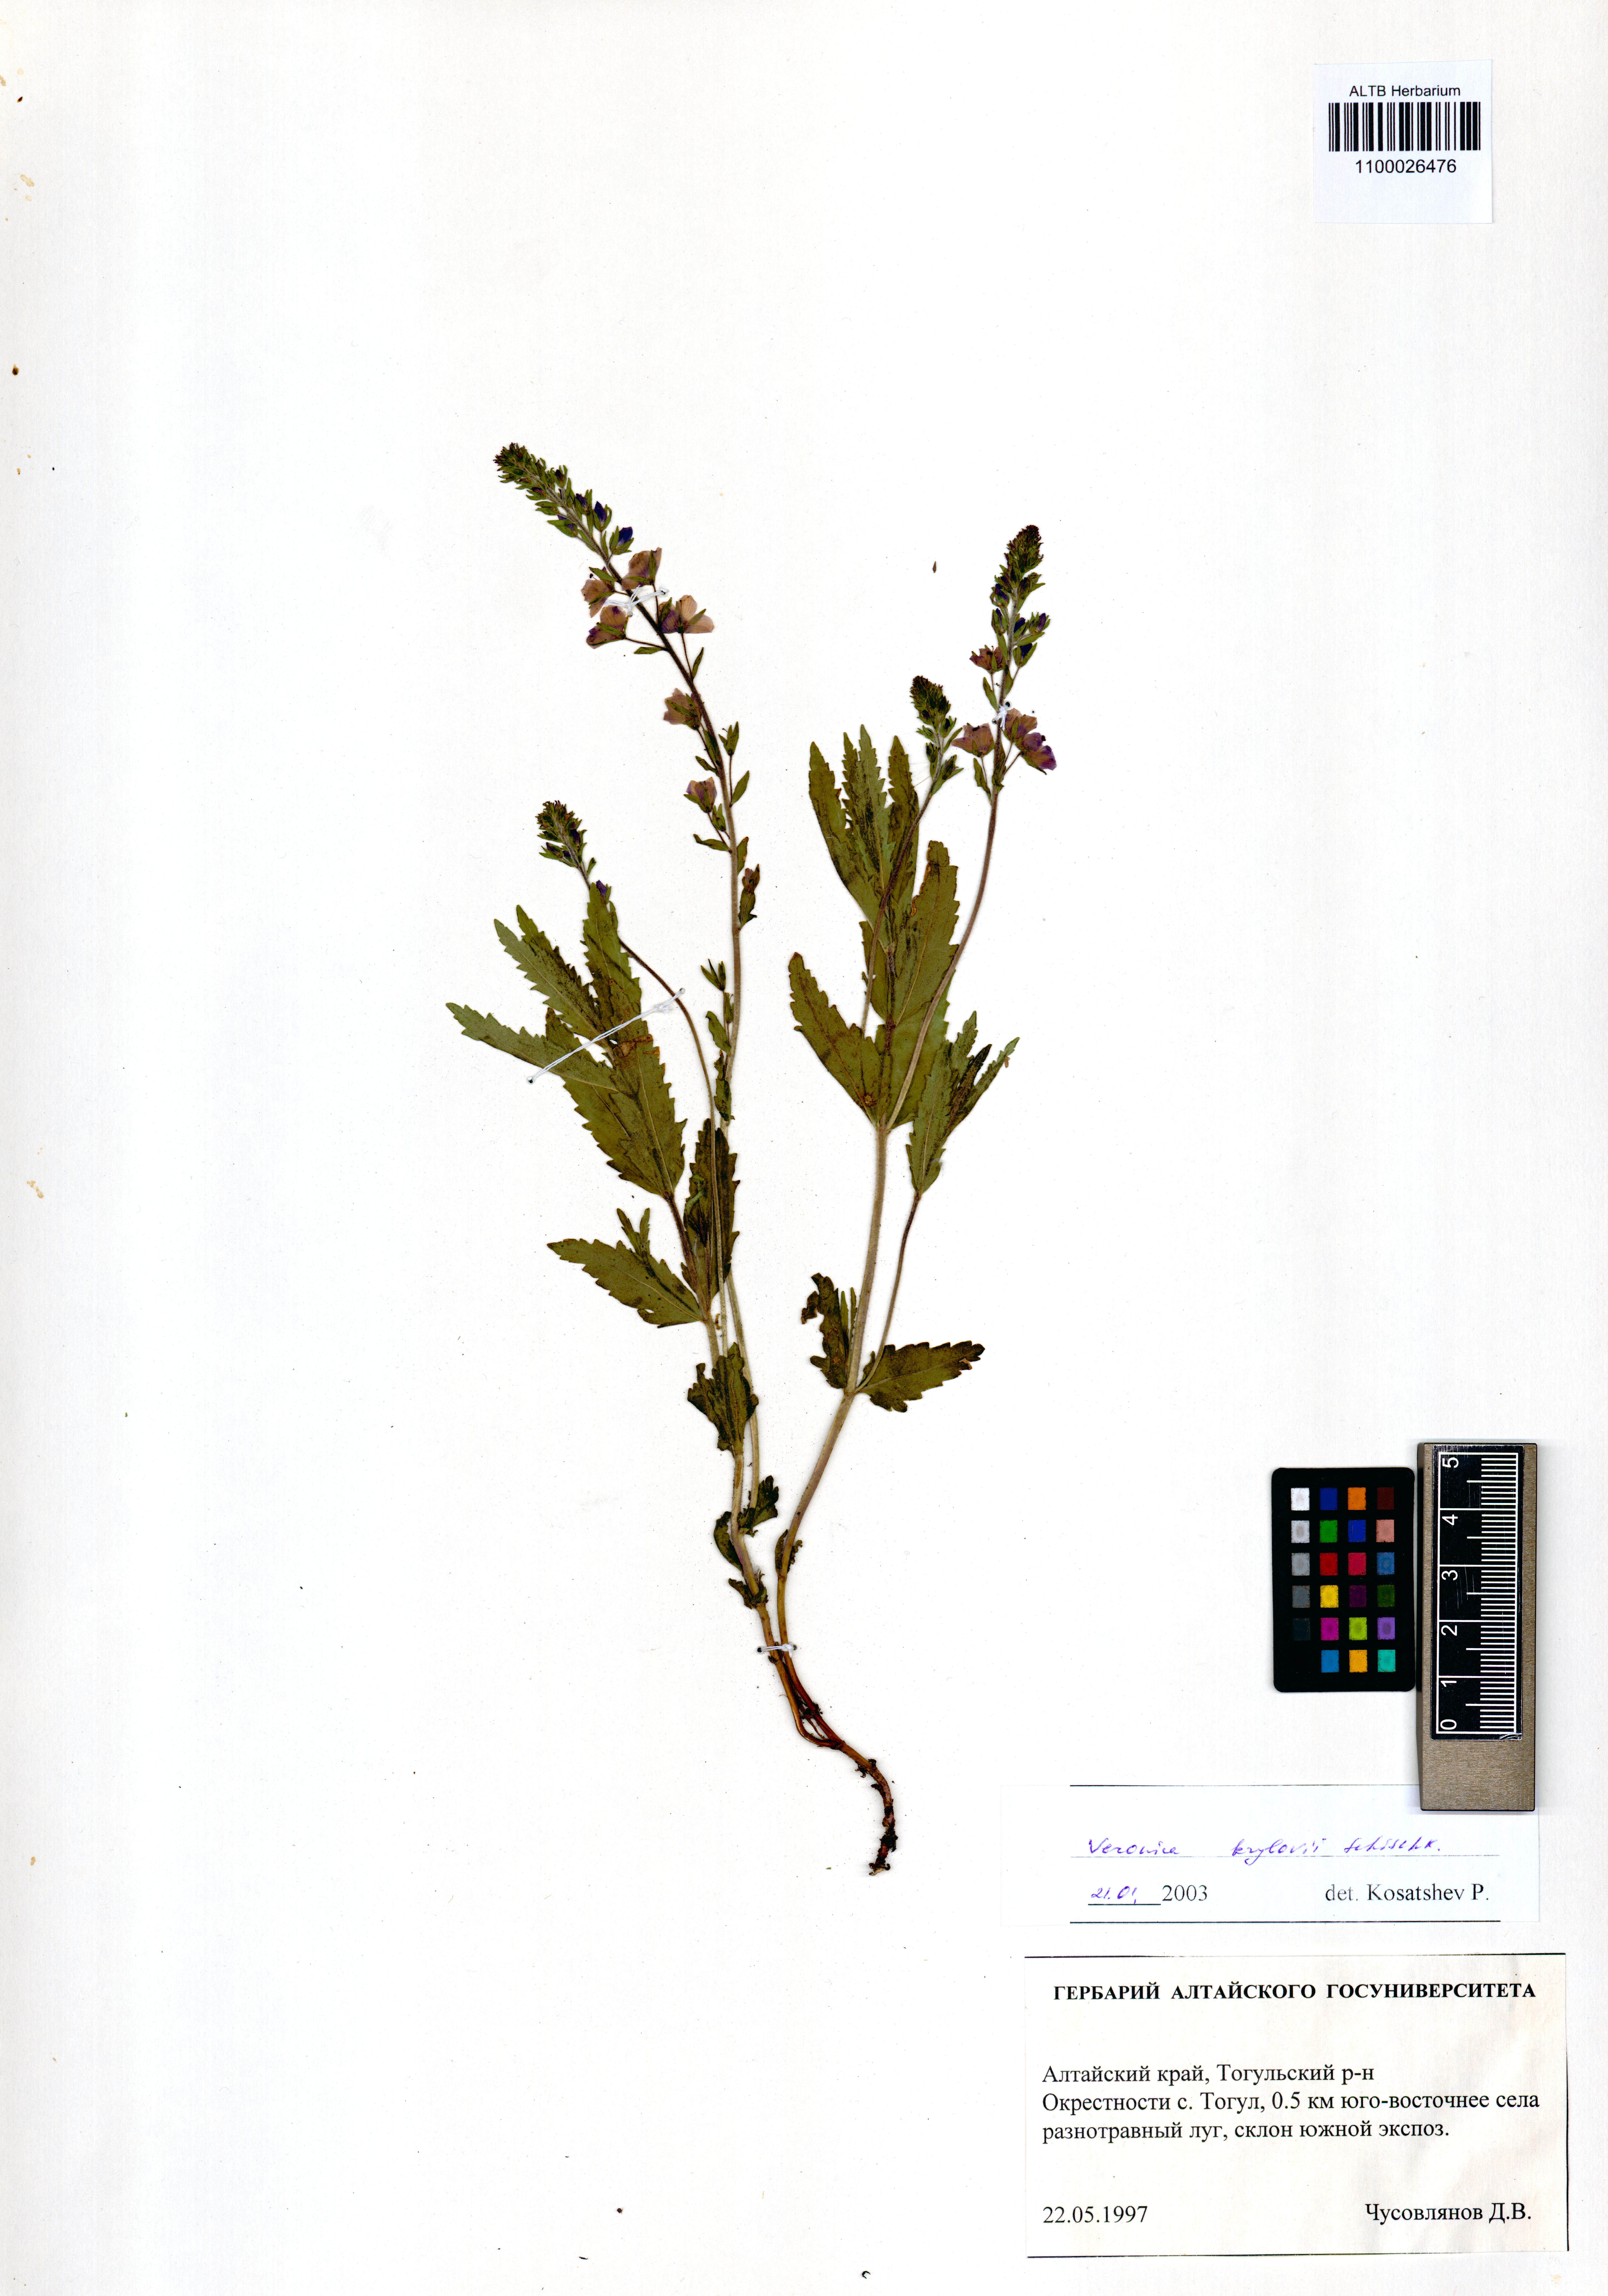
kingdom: Plantae
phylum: Tracheophyta
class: Magnoliopsida
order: Lamiales
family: Plantaginaceae
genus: Veronica
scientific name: Veronica krylovii
